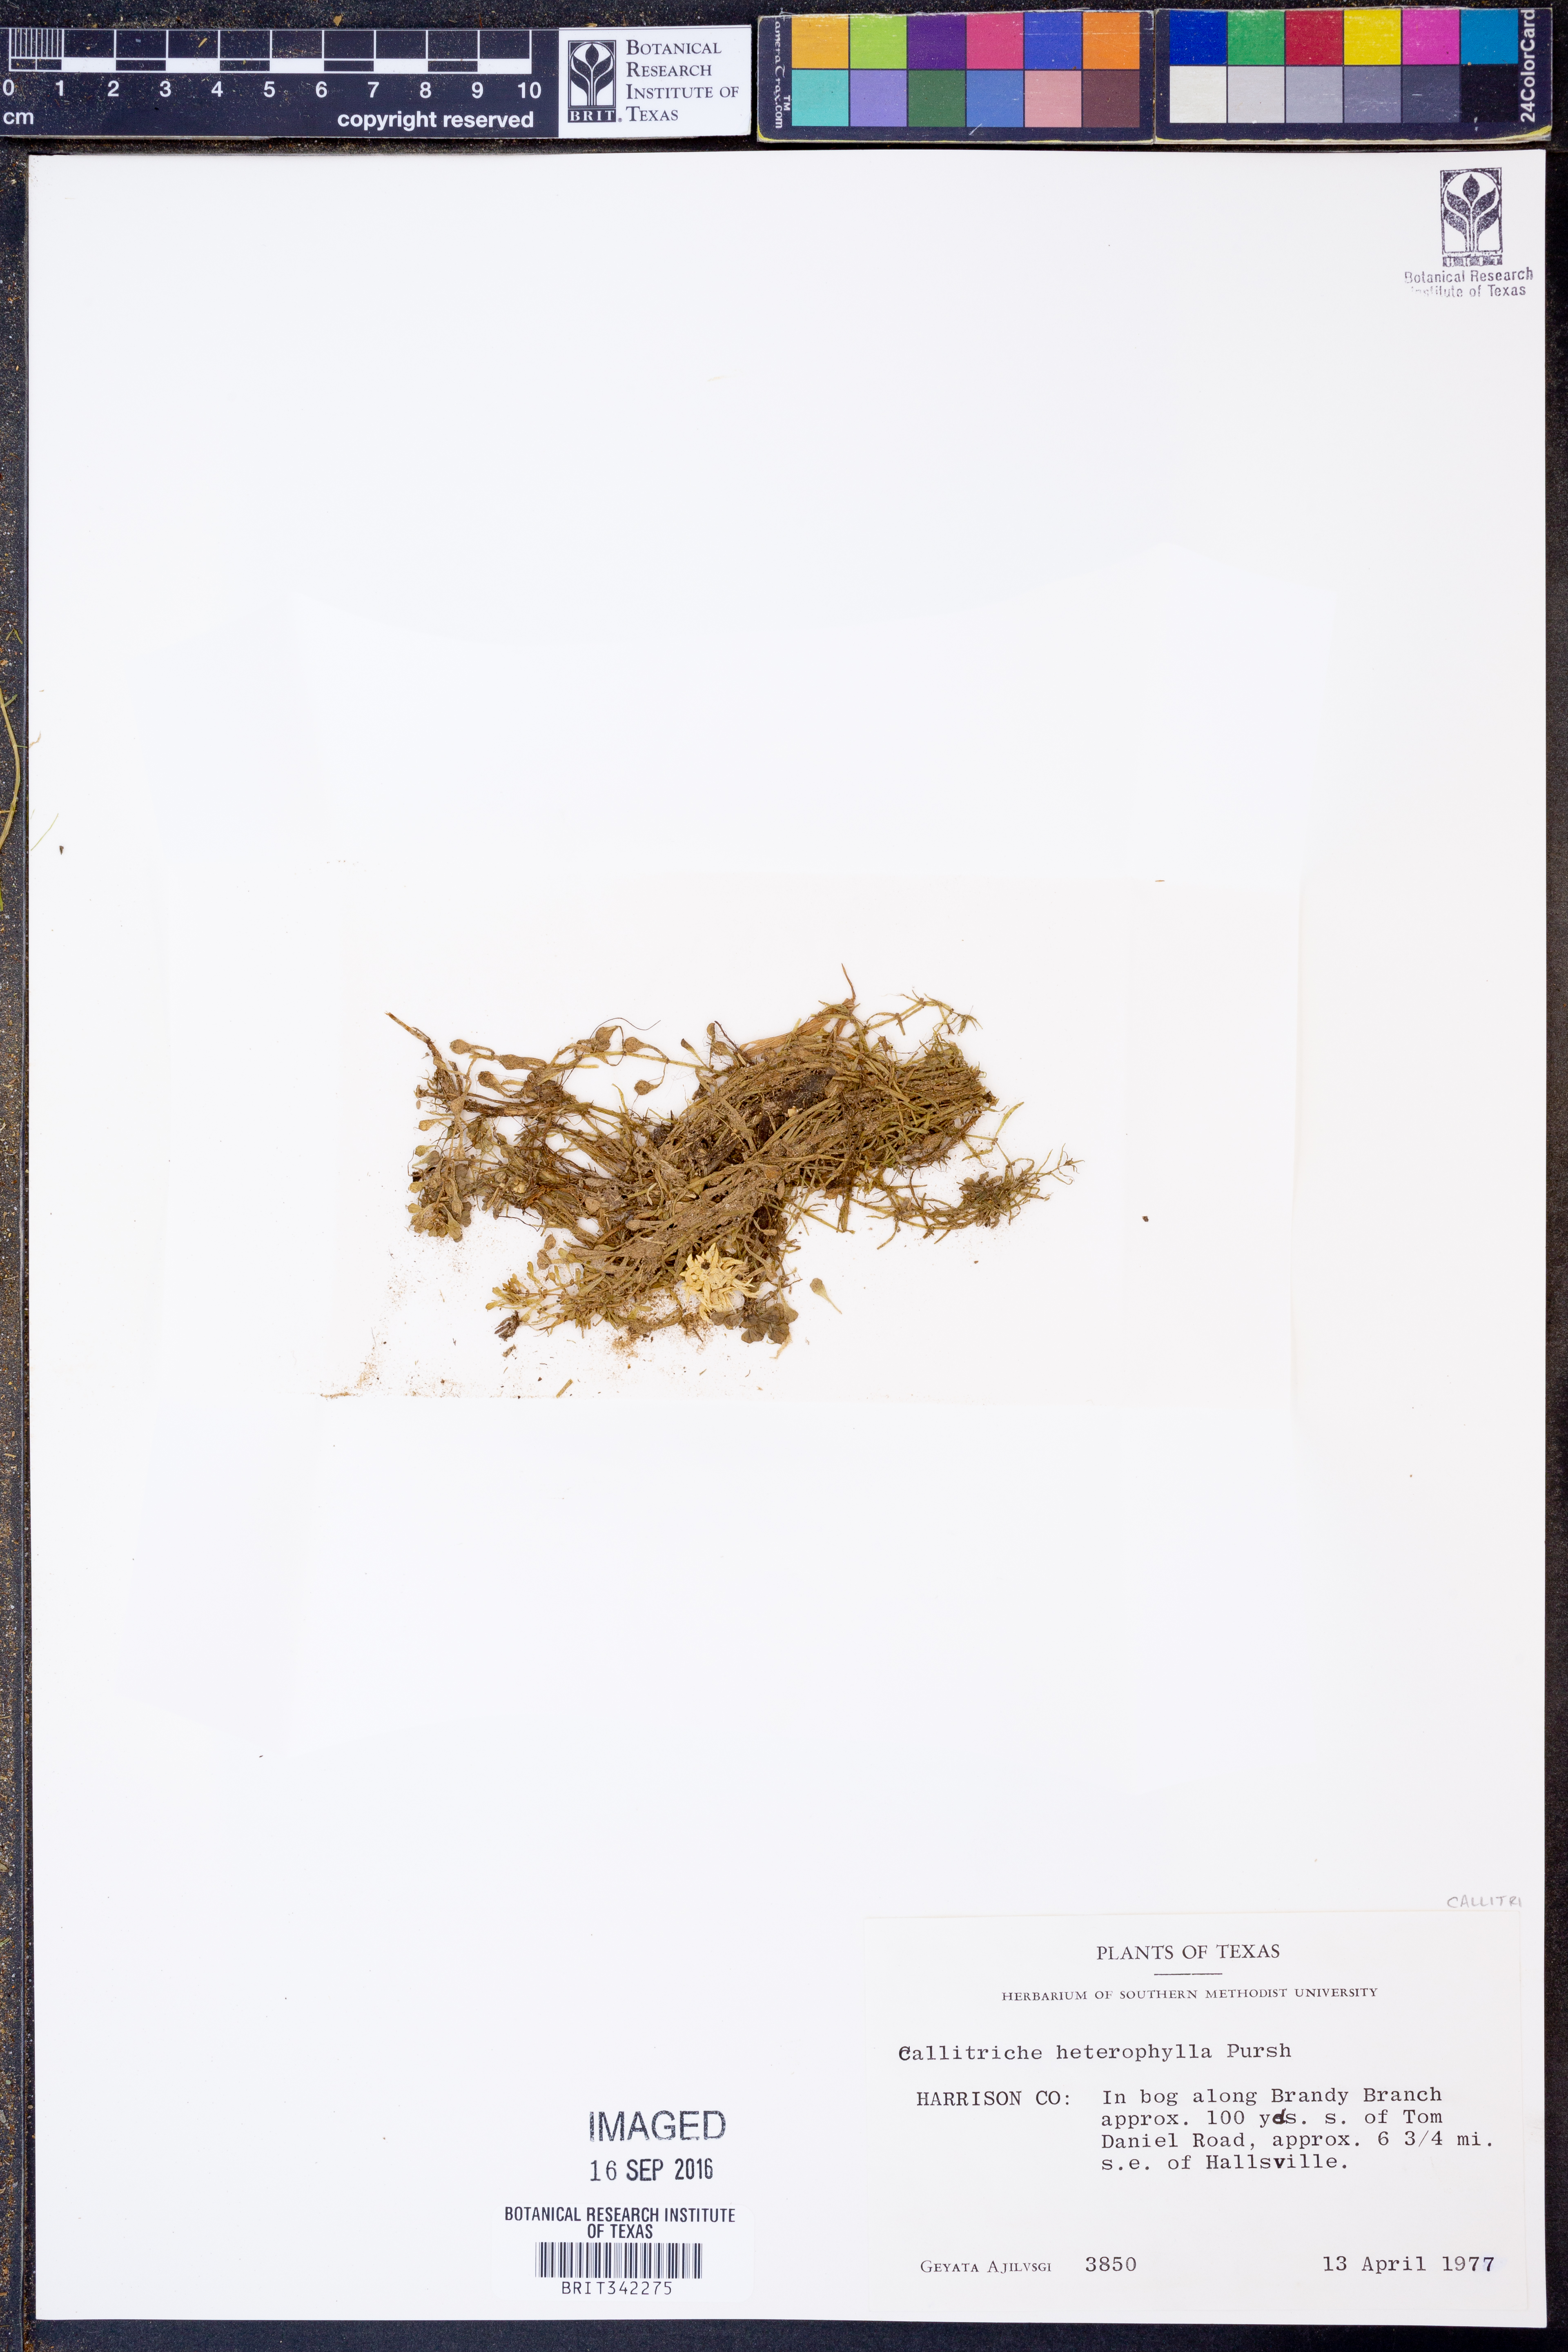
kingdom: Plantae
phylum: Tracheophyta
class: Magnoliopsida
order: Lamiales
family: Plantaginaceae
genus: Callitriche
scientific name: Callitriche heterophylla
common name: Two-headed water-starwort
